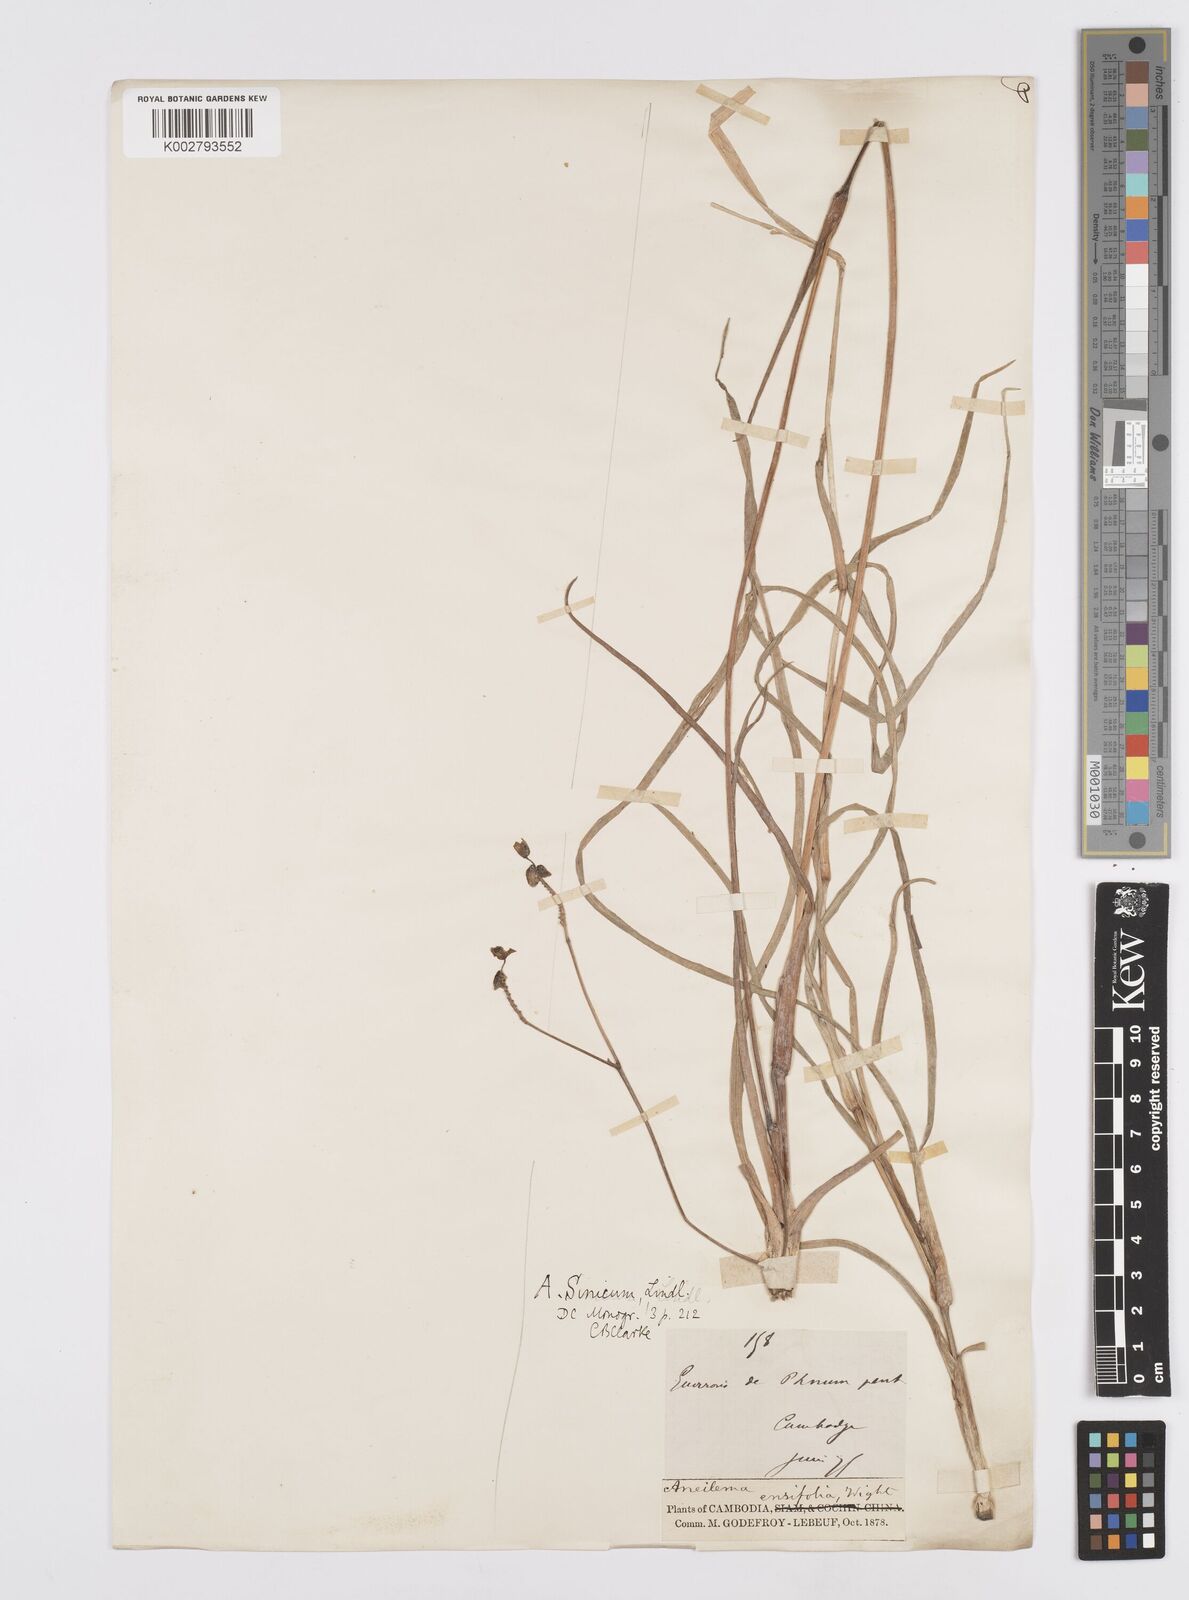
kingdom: Plantae
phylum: Tracheophyta
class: Liliopsida
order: Commelinales
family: Commelinaceae
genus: Murdannia
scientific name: Murdannia simplex
